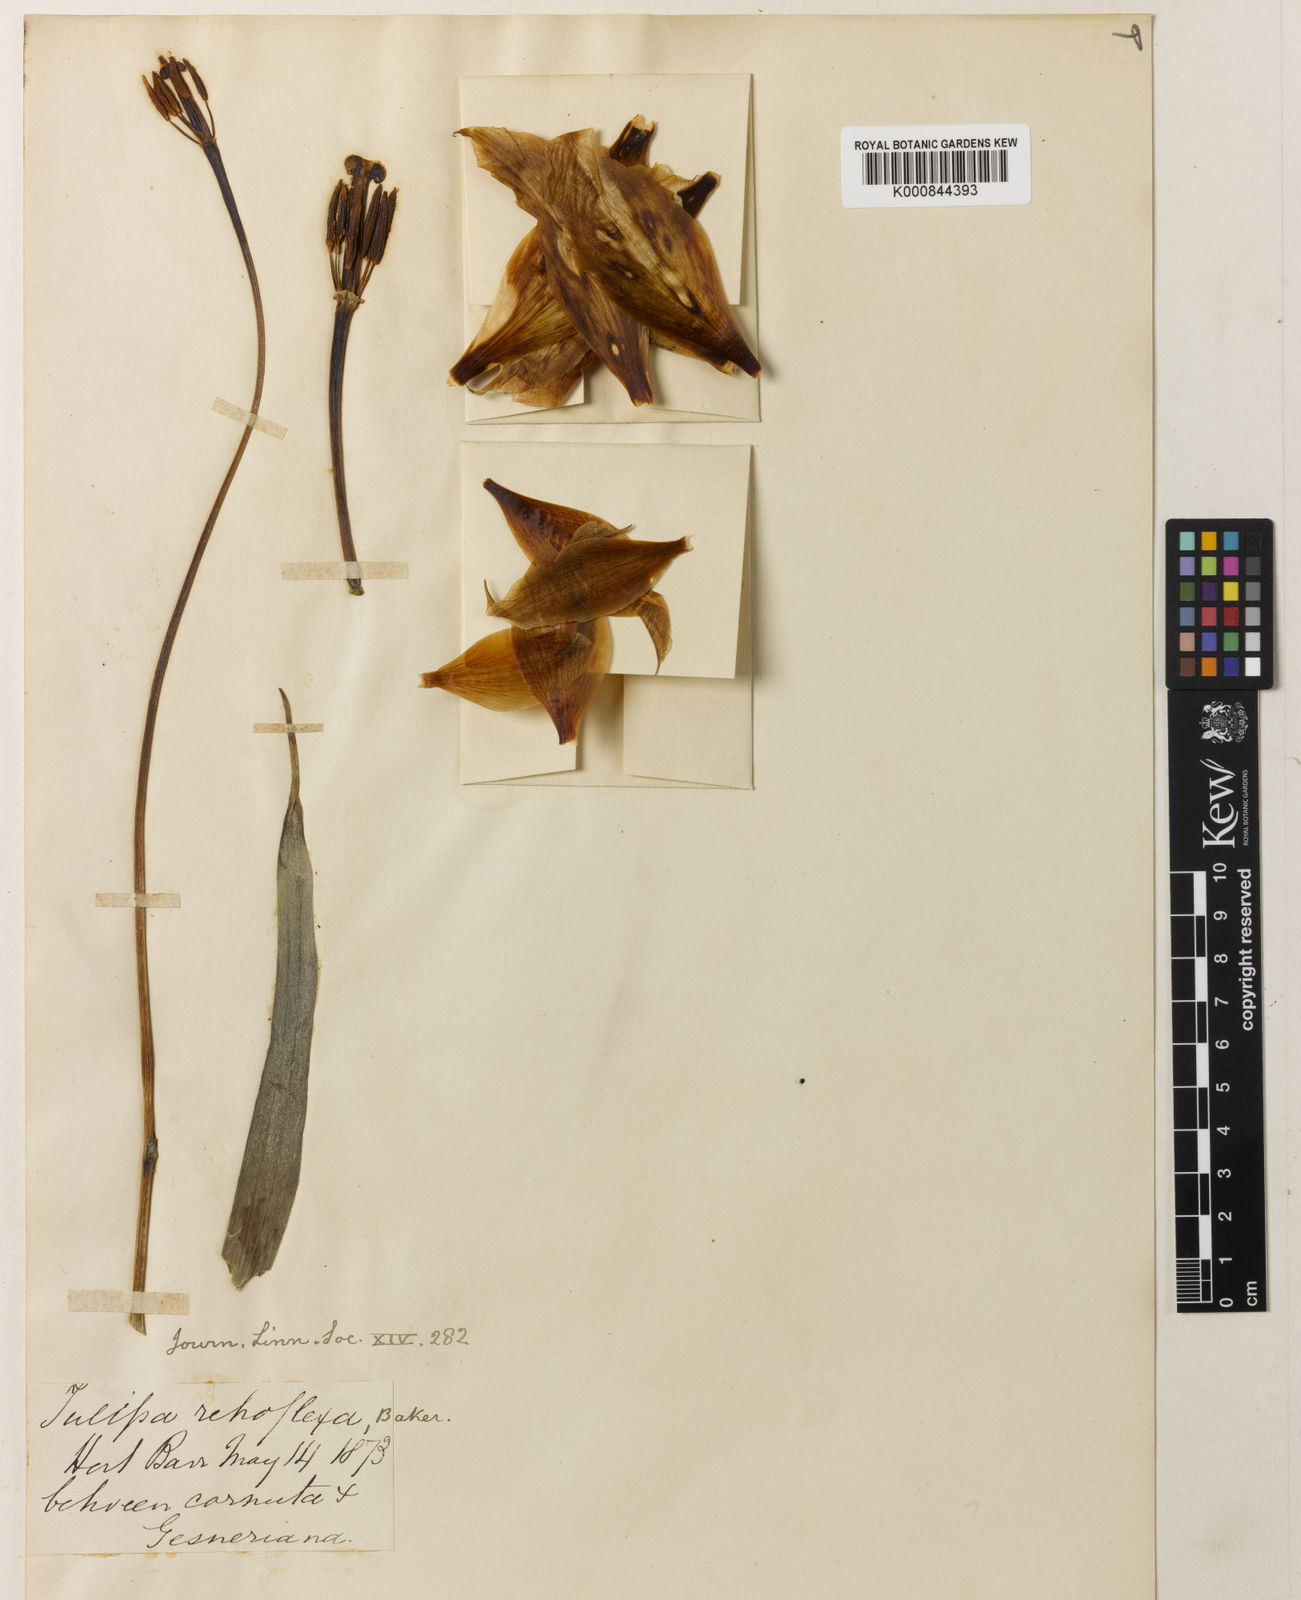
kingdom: Plantae
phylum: Tracheophyta
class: Liliopsida
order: Liliales
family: Liliaceae
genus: Tulipa
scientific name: Tulipa gesneriana
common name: Garden tulip
